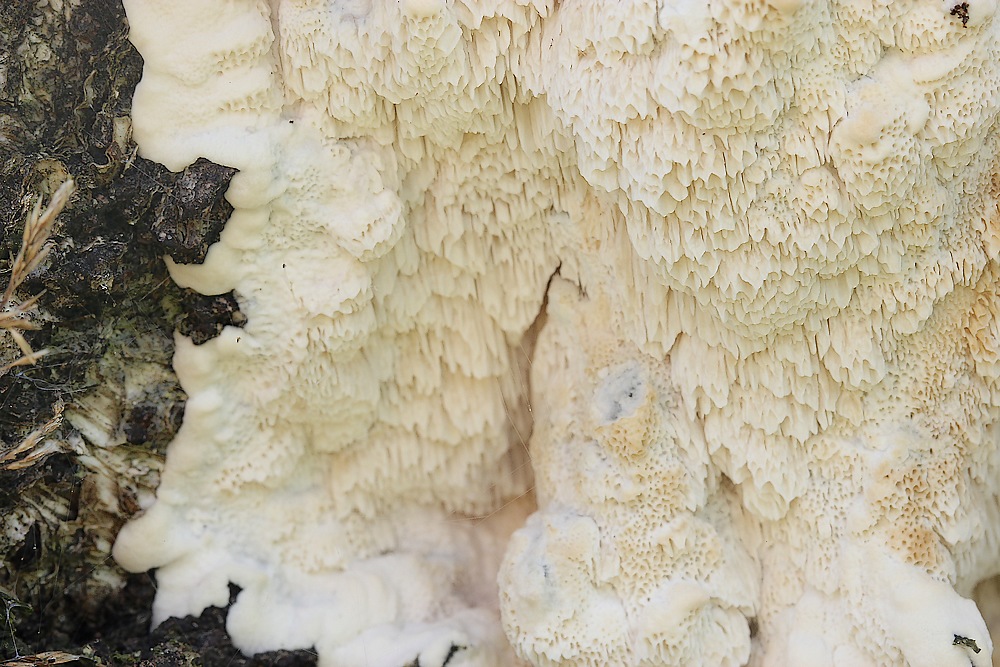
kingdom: Fungi
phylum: Basidiomycota
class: Agaricomycetes
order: Polyporales
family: Irpicaceae
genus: Emmia
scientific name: Emmia
